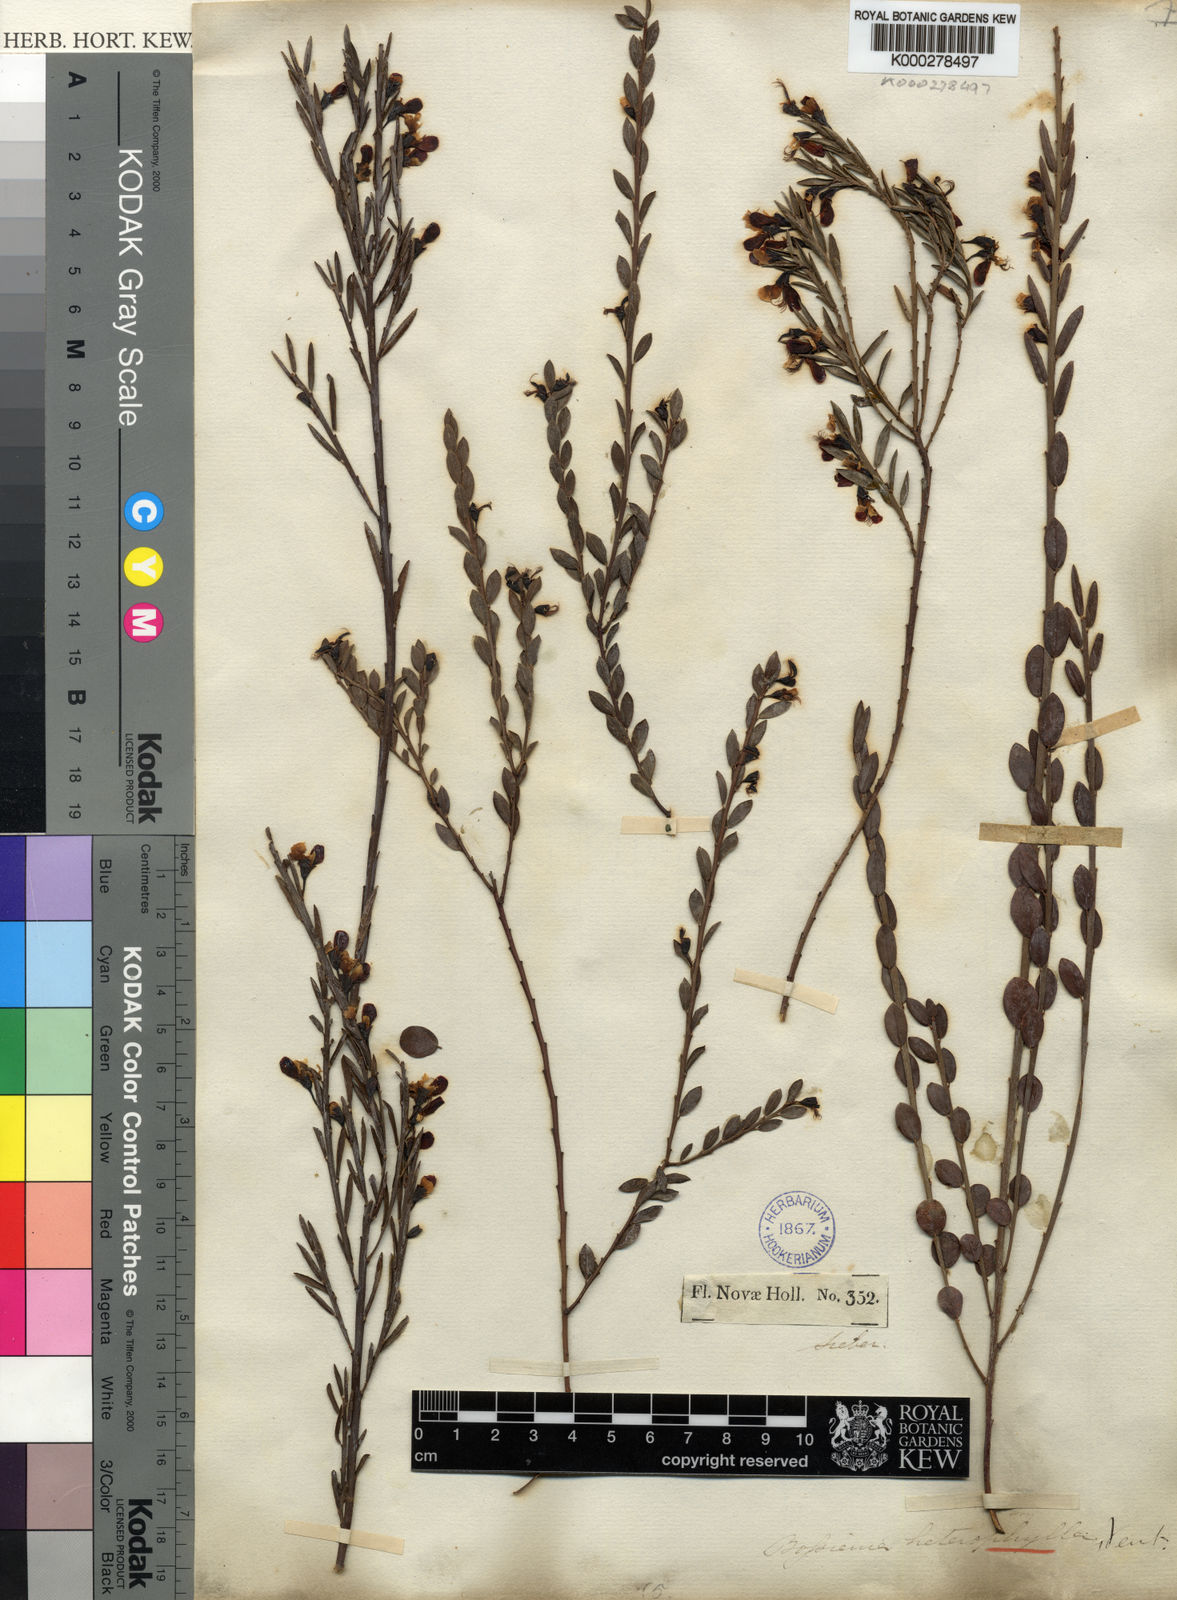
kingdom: Plantae
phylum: Tracheophyta
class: Magnoliopsida
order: Fabales
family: Fabaceae
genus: Bossiaea
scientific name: Bossiaea heterophylla
